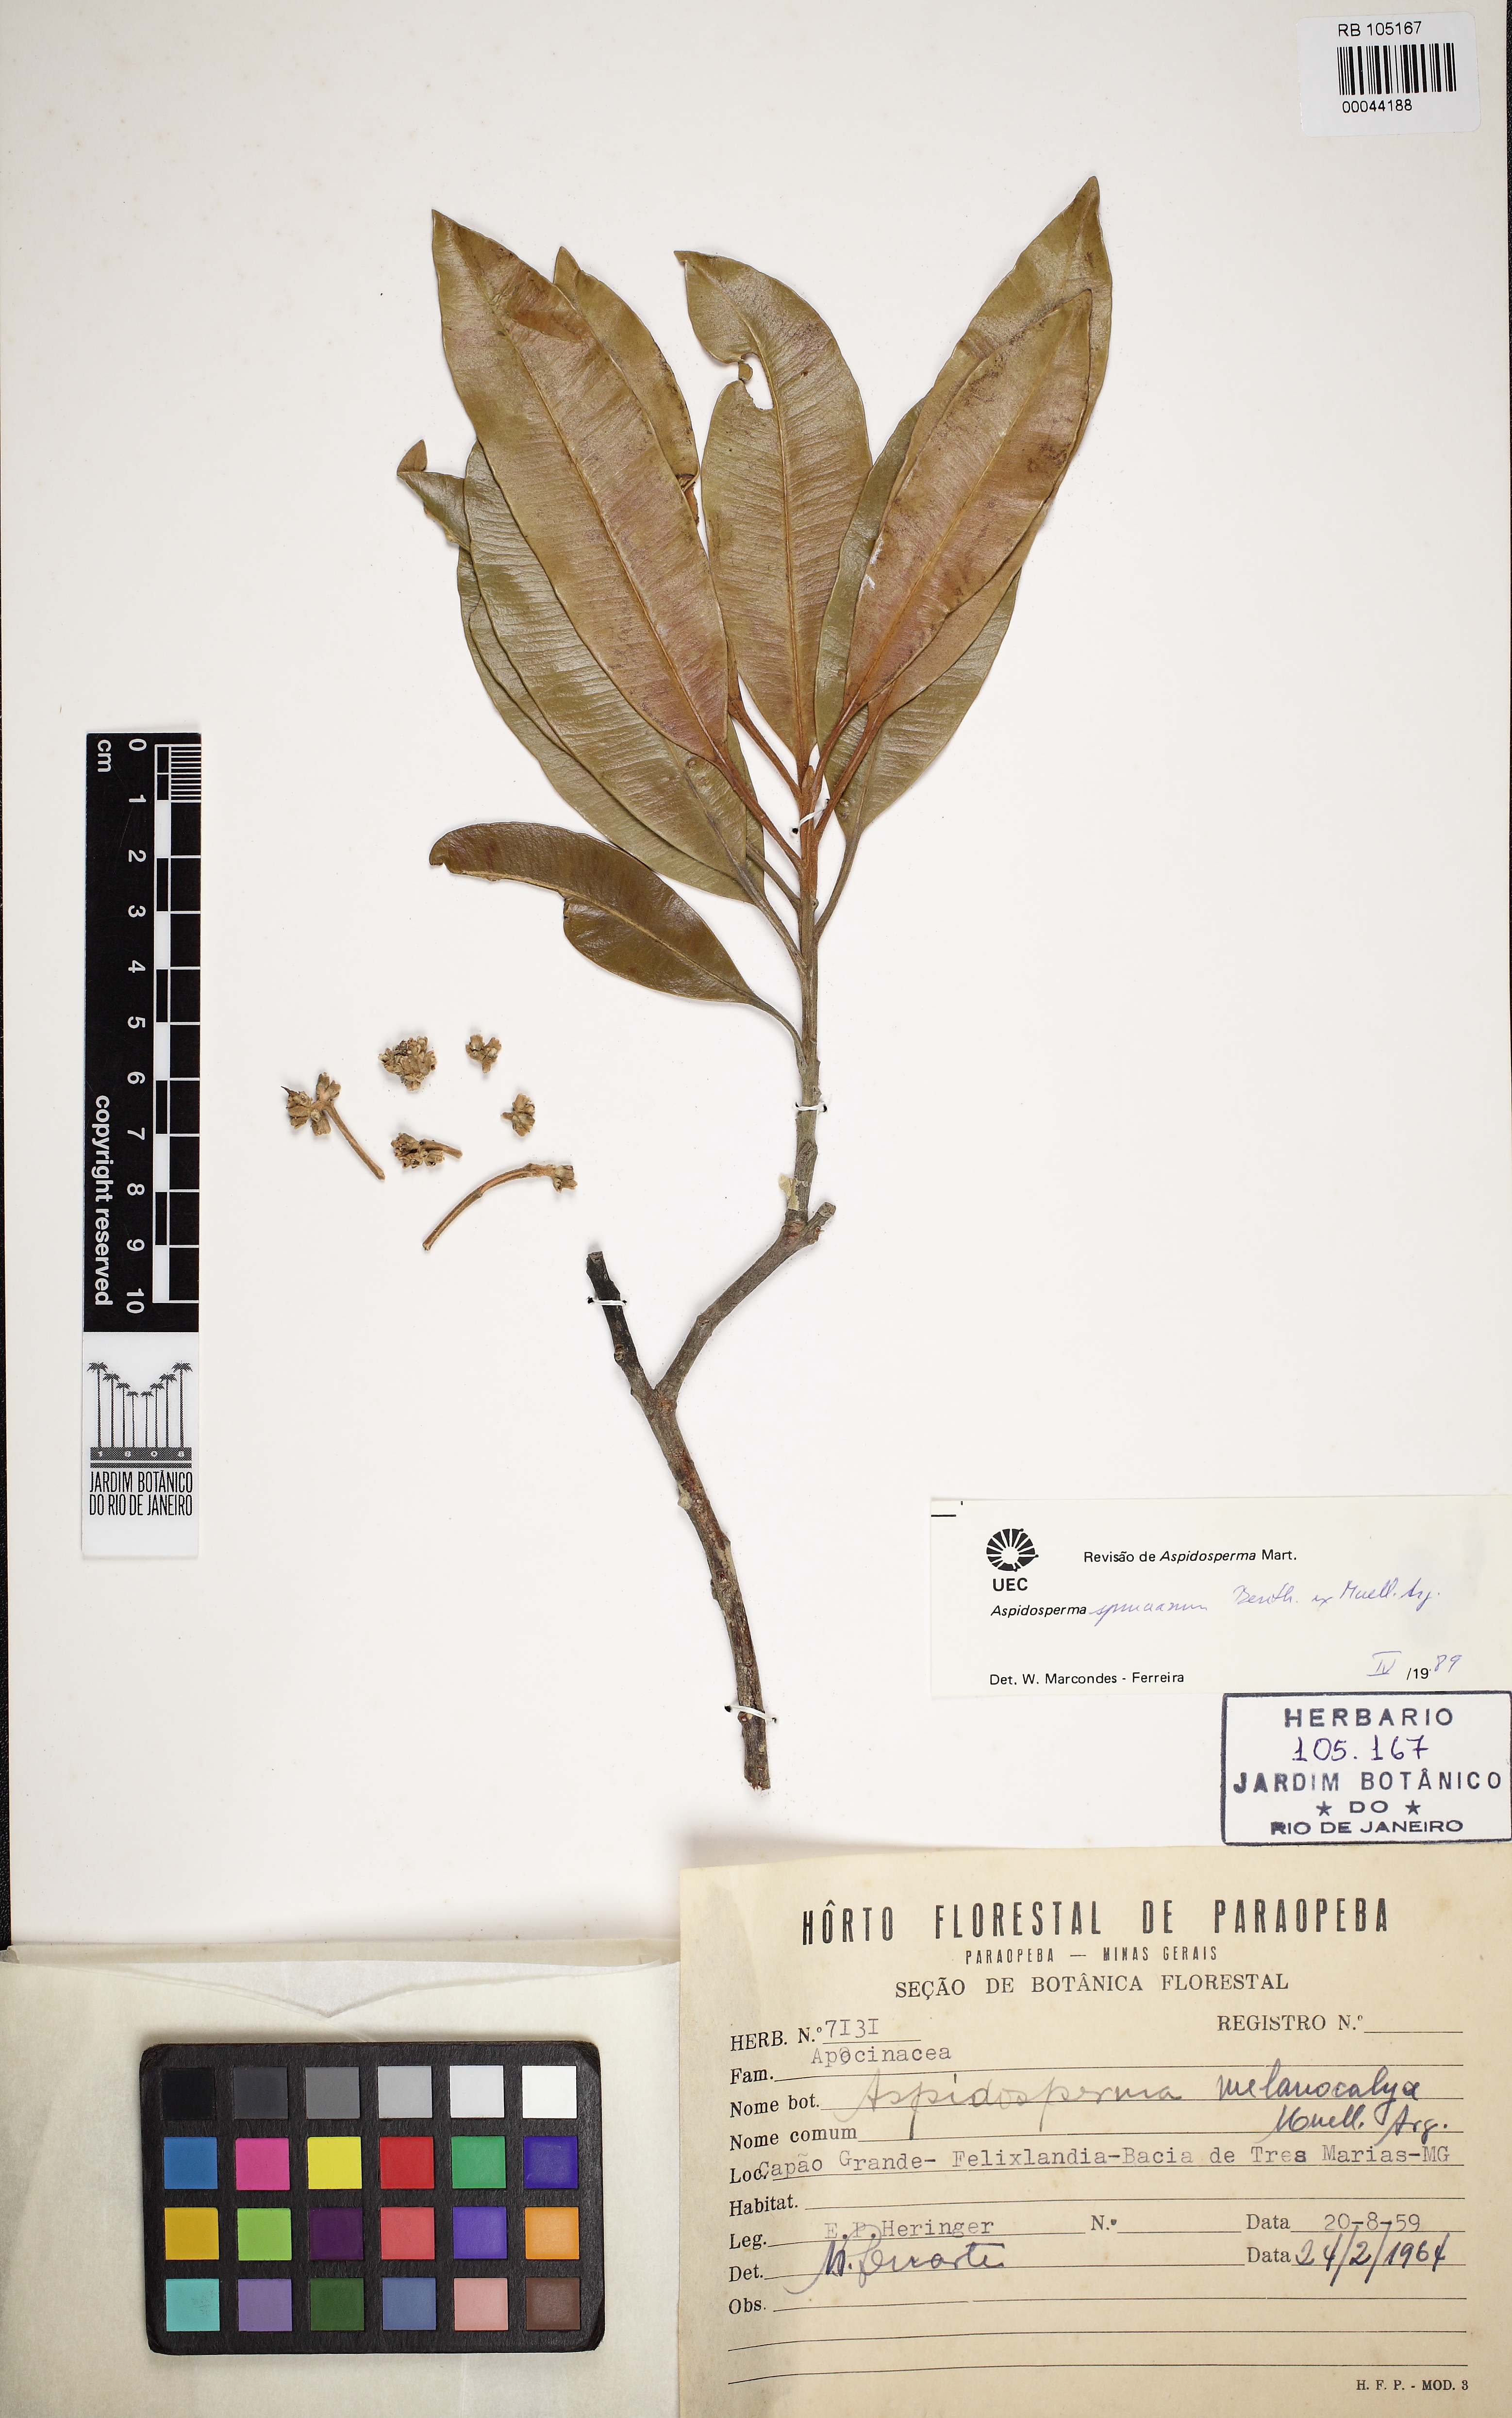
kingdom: Plantae
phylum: Tracheophyta
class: Magnoliopsida
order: Gentianales
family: Apocynaceae
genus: Aspidosperma
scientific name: Aspidosperma spruceanum
